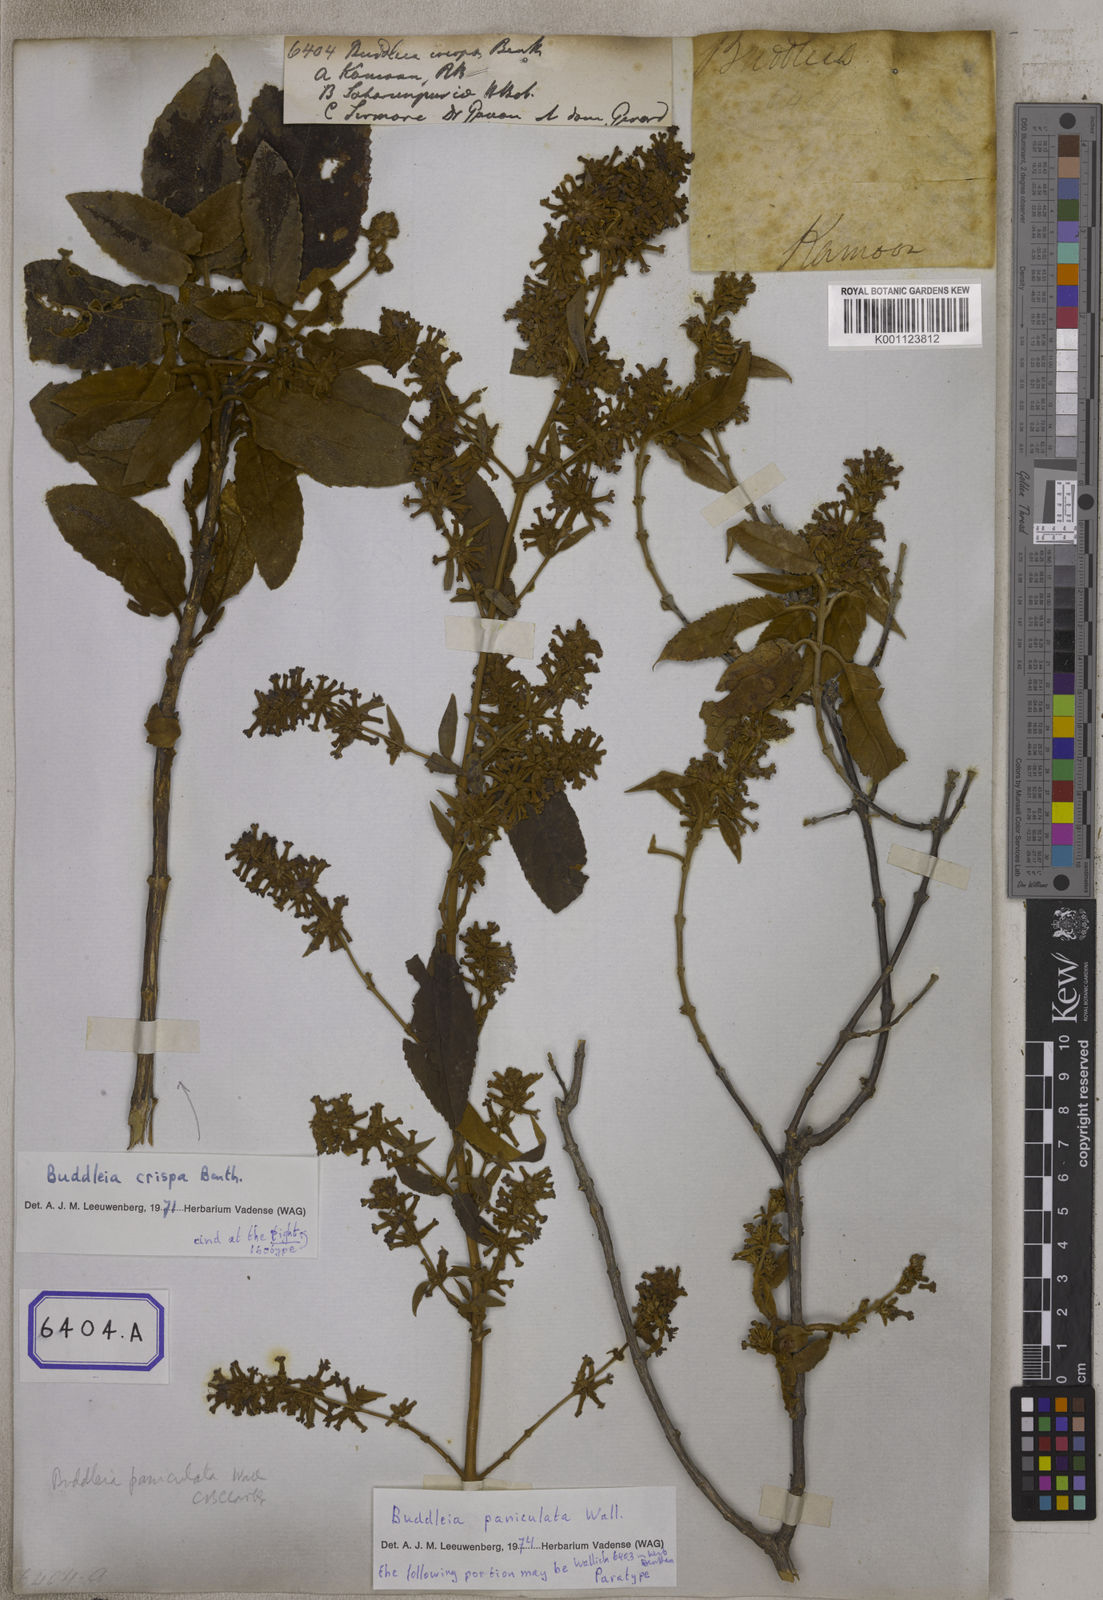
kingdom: Plantae
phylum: Tracheophyta
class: Magnoliopsida
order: Lamiales
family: Scrophulariaceae
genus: Buddleja
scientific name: Buddleja crispa
